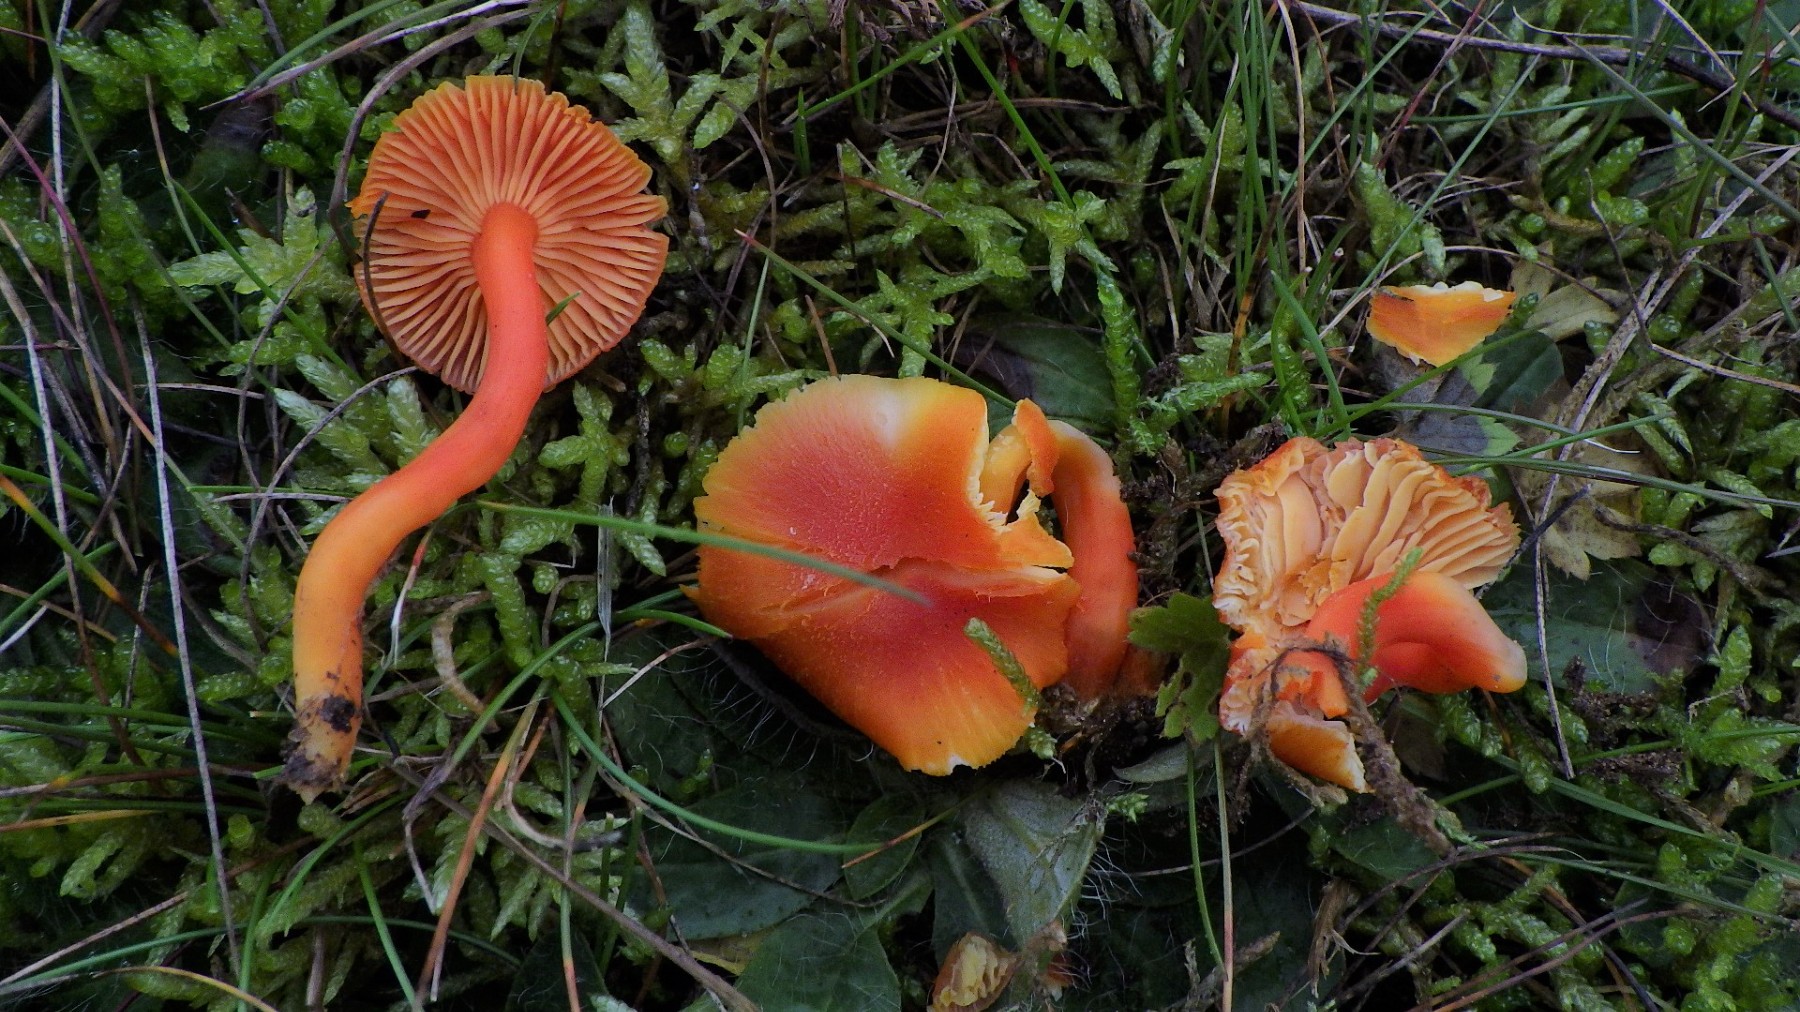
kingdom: Fungi
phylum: Basidiomycota
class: Agaricomycetes
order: Agaricales
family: Hygrophoraceae
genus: Hygrocybe
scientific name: Hygrocybe miniata
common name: mønje-vokshat
